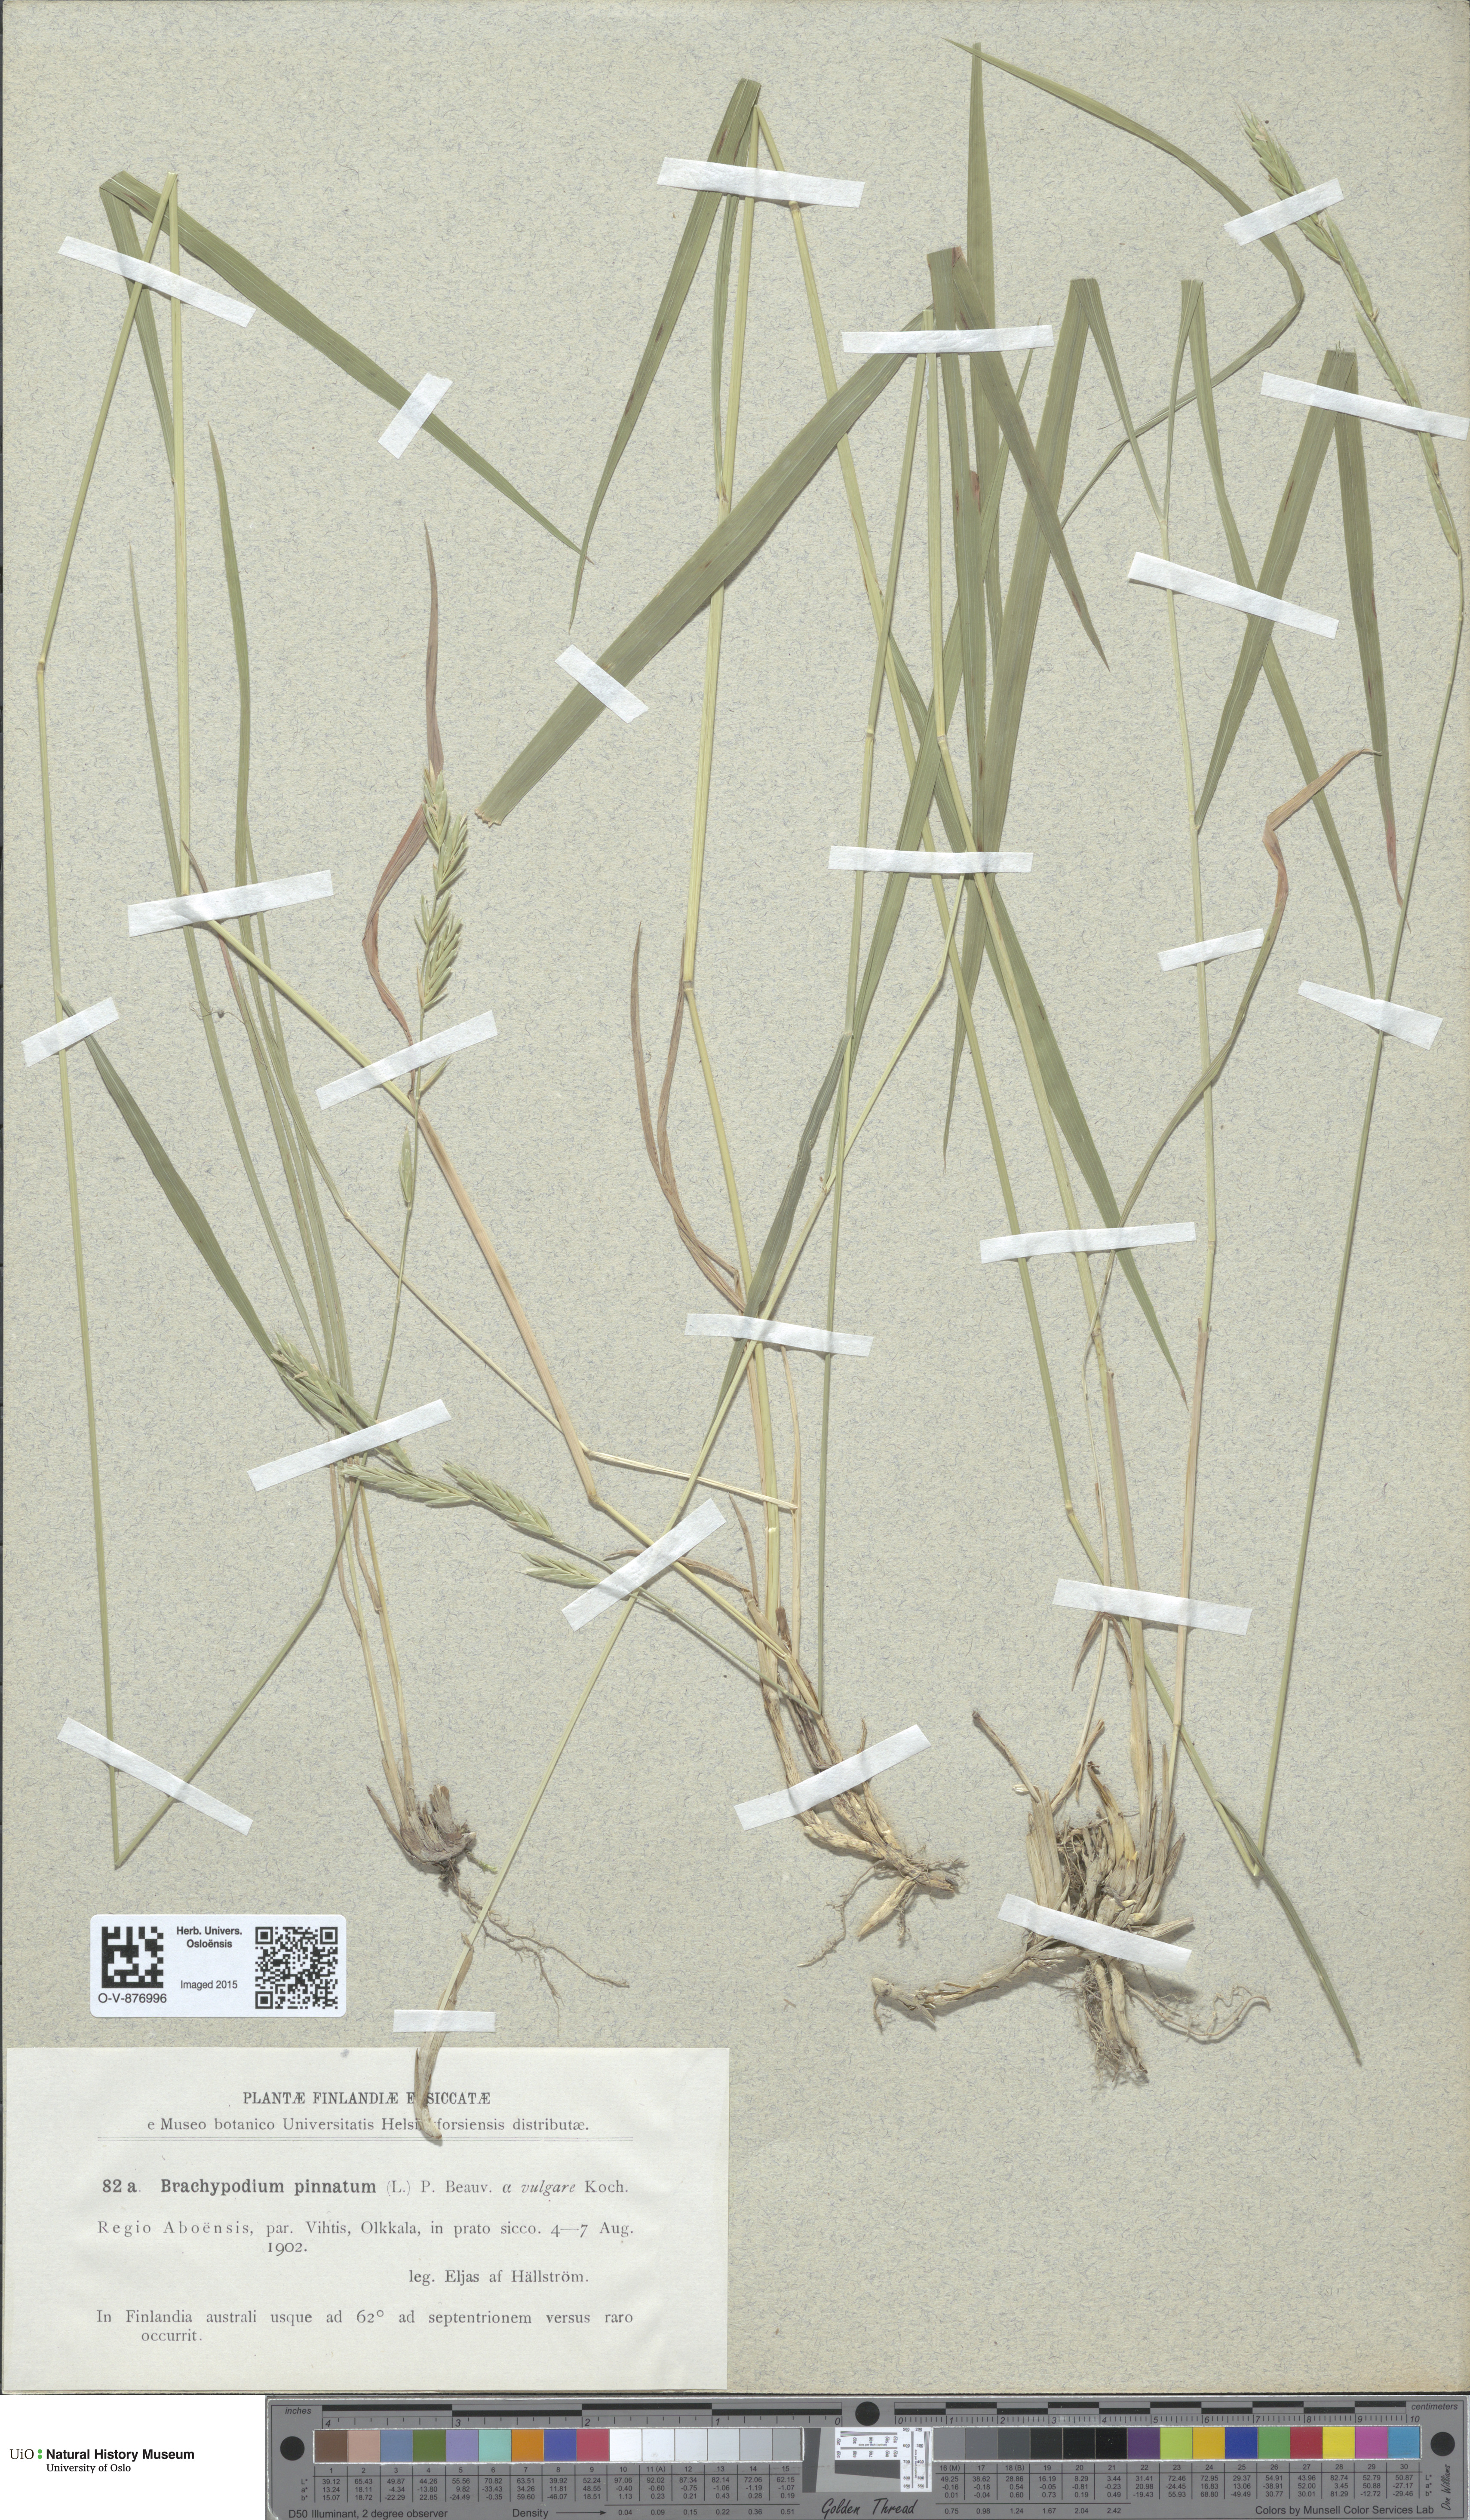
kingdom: Plantae
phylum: Tracheophyta
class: Liliopsida
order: Poales
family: Poaceae
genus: Brachypodium
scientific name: Brachypodium pinnatum
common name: Tor grass
